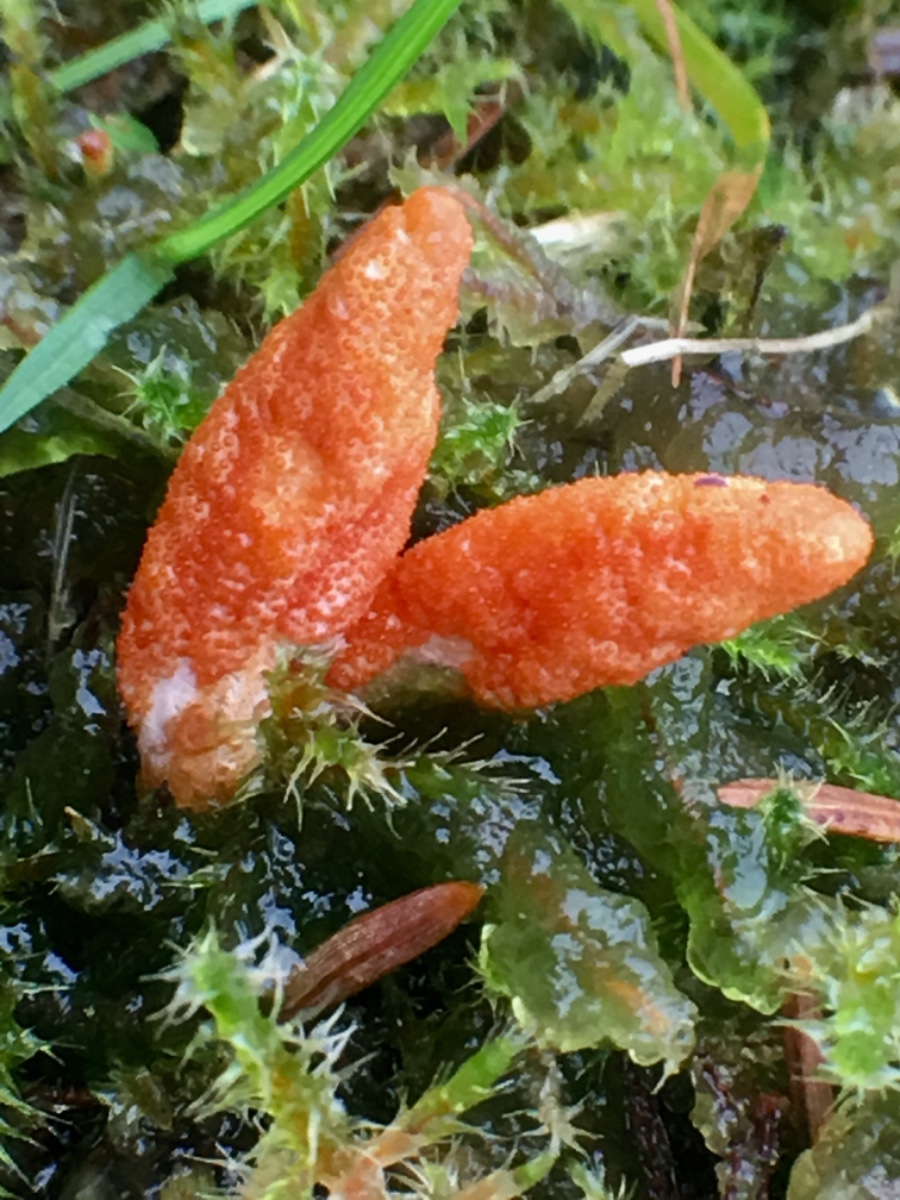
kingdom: Fungi
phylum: Ascomycota
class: Sordariomycetes
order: Hypocreales
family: Cordycipitaceae
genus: Cordyceps
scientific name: Cordyceps militaris
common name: puppe-snyltekølle
